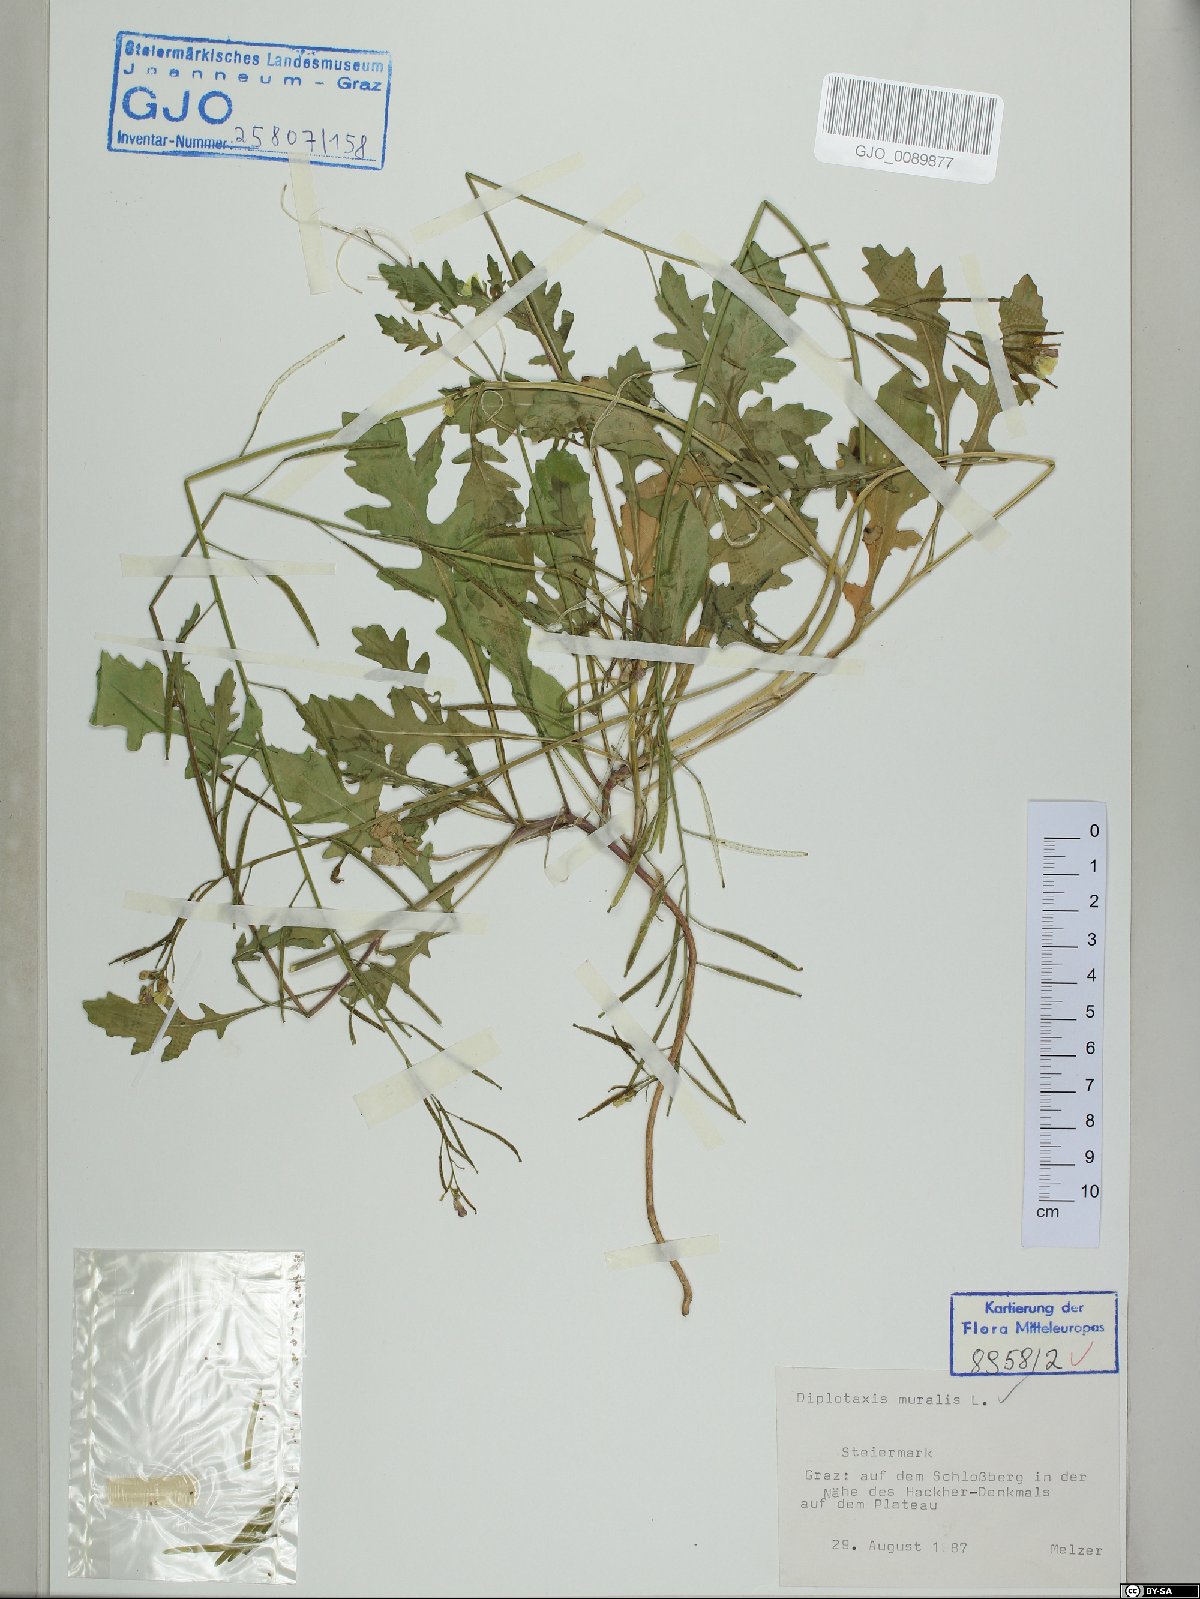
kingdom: Plantae
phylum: Tracheophyta
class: Magnoliopsida
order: Brassicales
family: Brassicaceae
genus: Diplotaxis
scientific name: Diplotaxis muralis
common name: Annual wall-rocket
